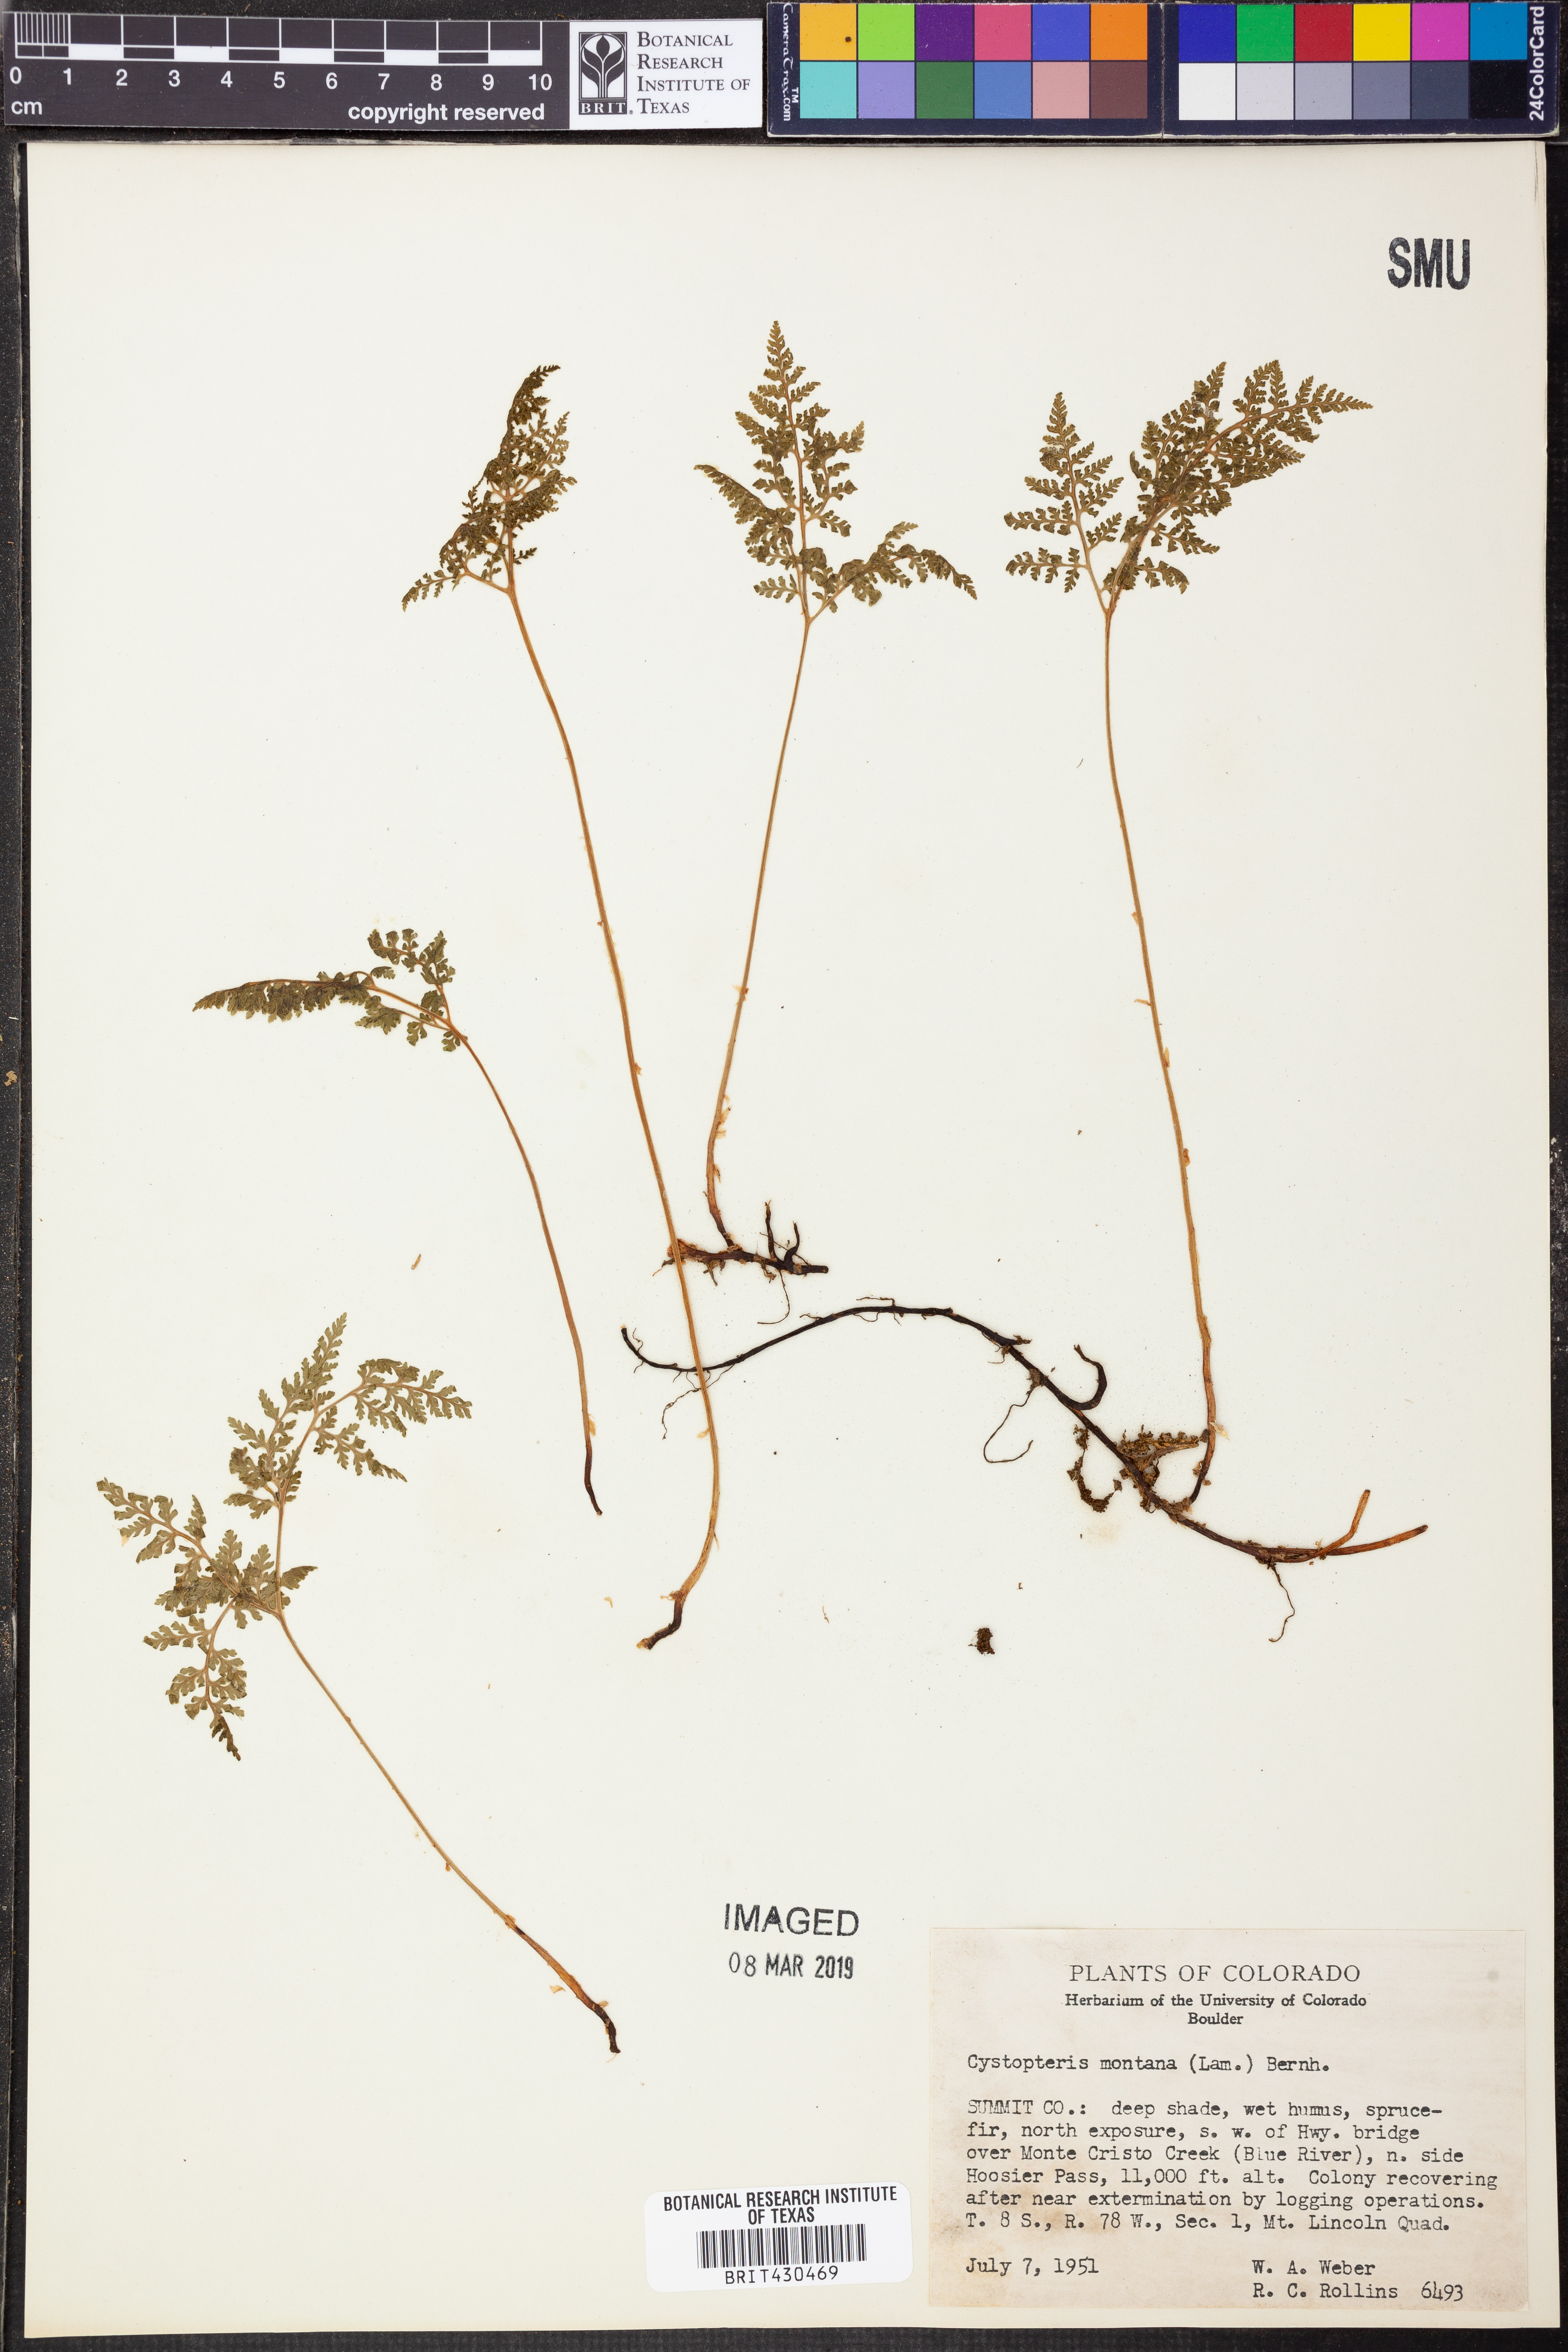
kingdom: Plantae
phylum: Tracheophyta
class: Polypodiopsida
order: Polypodiales
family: Cystopteridaceae
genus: Cystopteris
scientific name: Cystopteris montana
